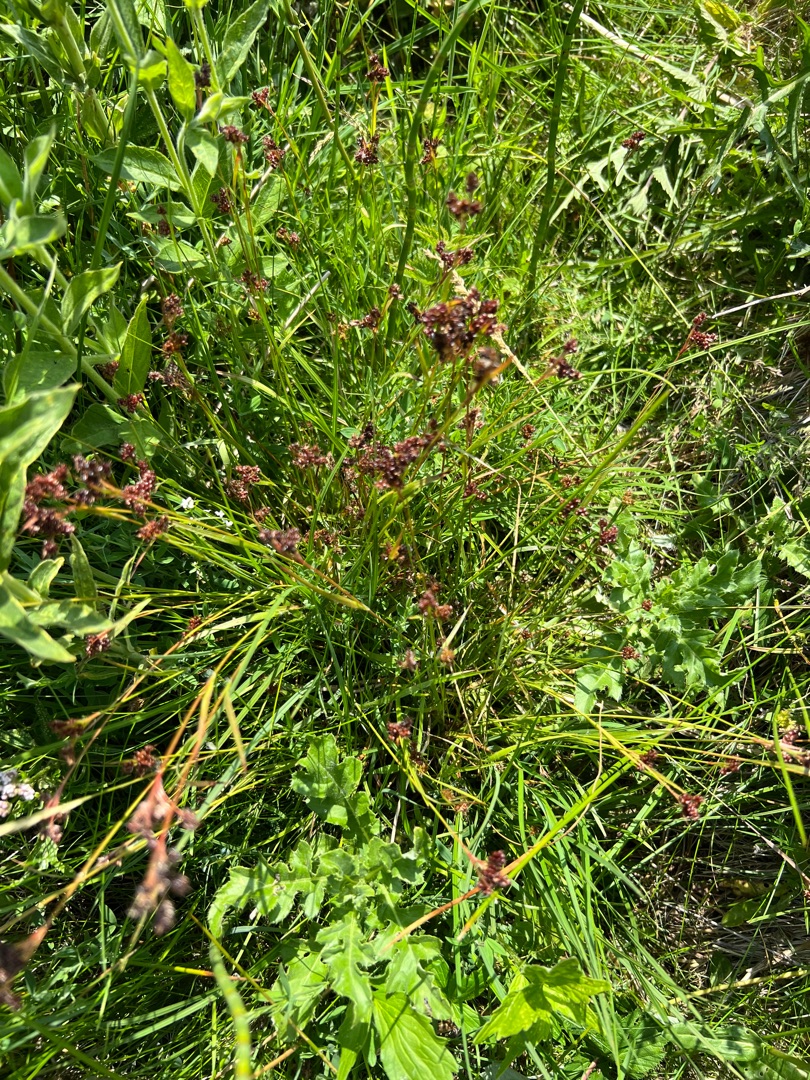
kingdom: Plantae
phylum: Tracheophyta
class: Liliopsida
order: Poales
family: Juncaceae
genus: Luzula
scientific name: Luzula multiflora
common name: Mangeblomstret frytle
